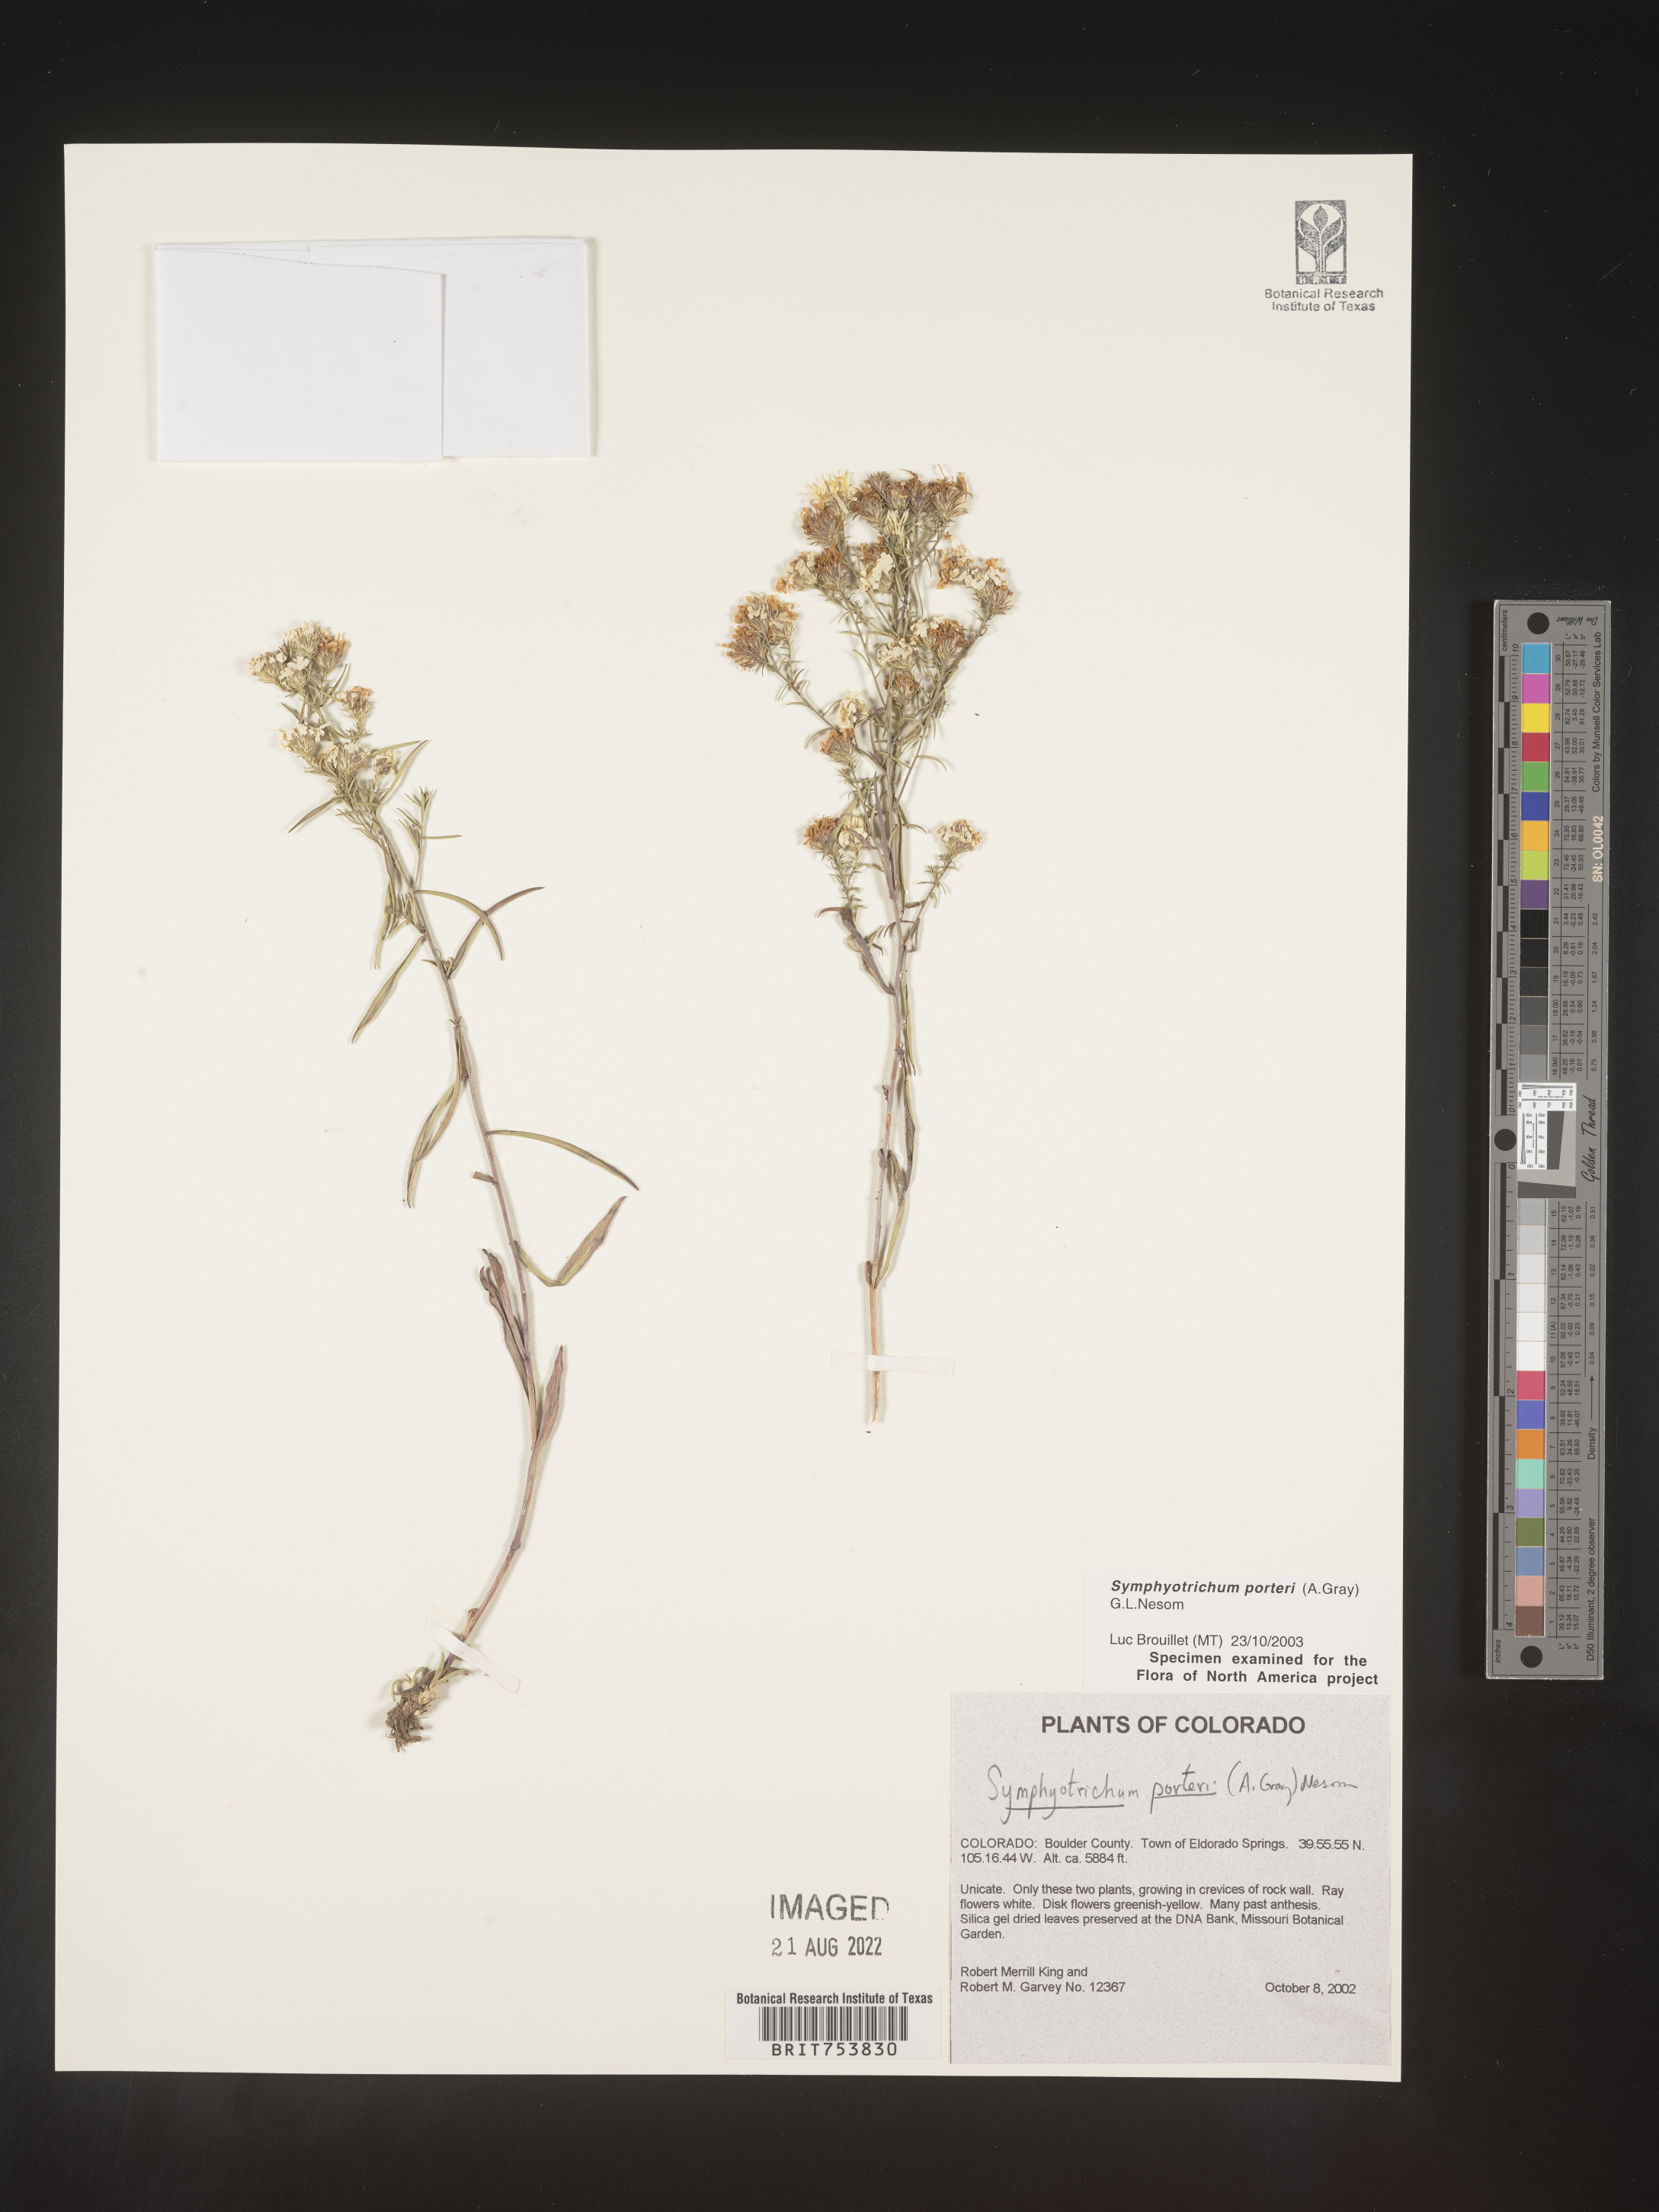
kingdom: Plantae
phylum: Tracheophyta
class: Magnoliopsida
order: Asterales
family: Asteraceae
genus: Symphyotrichum
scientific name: Symphyotrichum porteri
